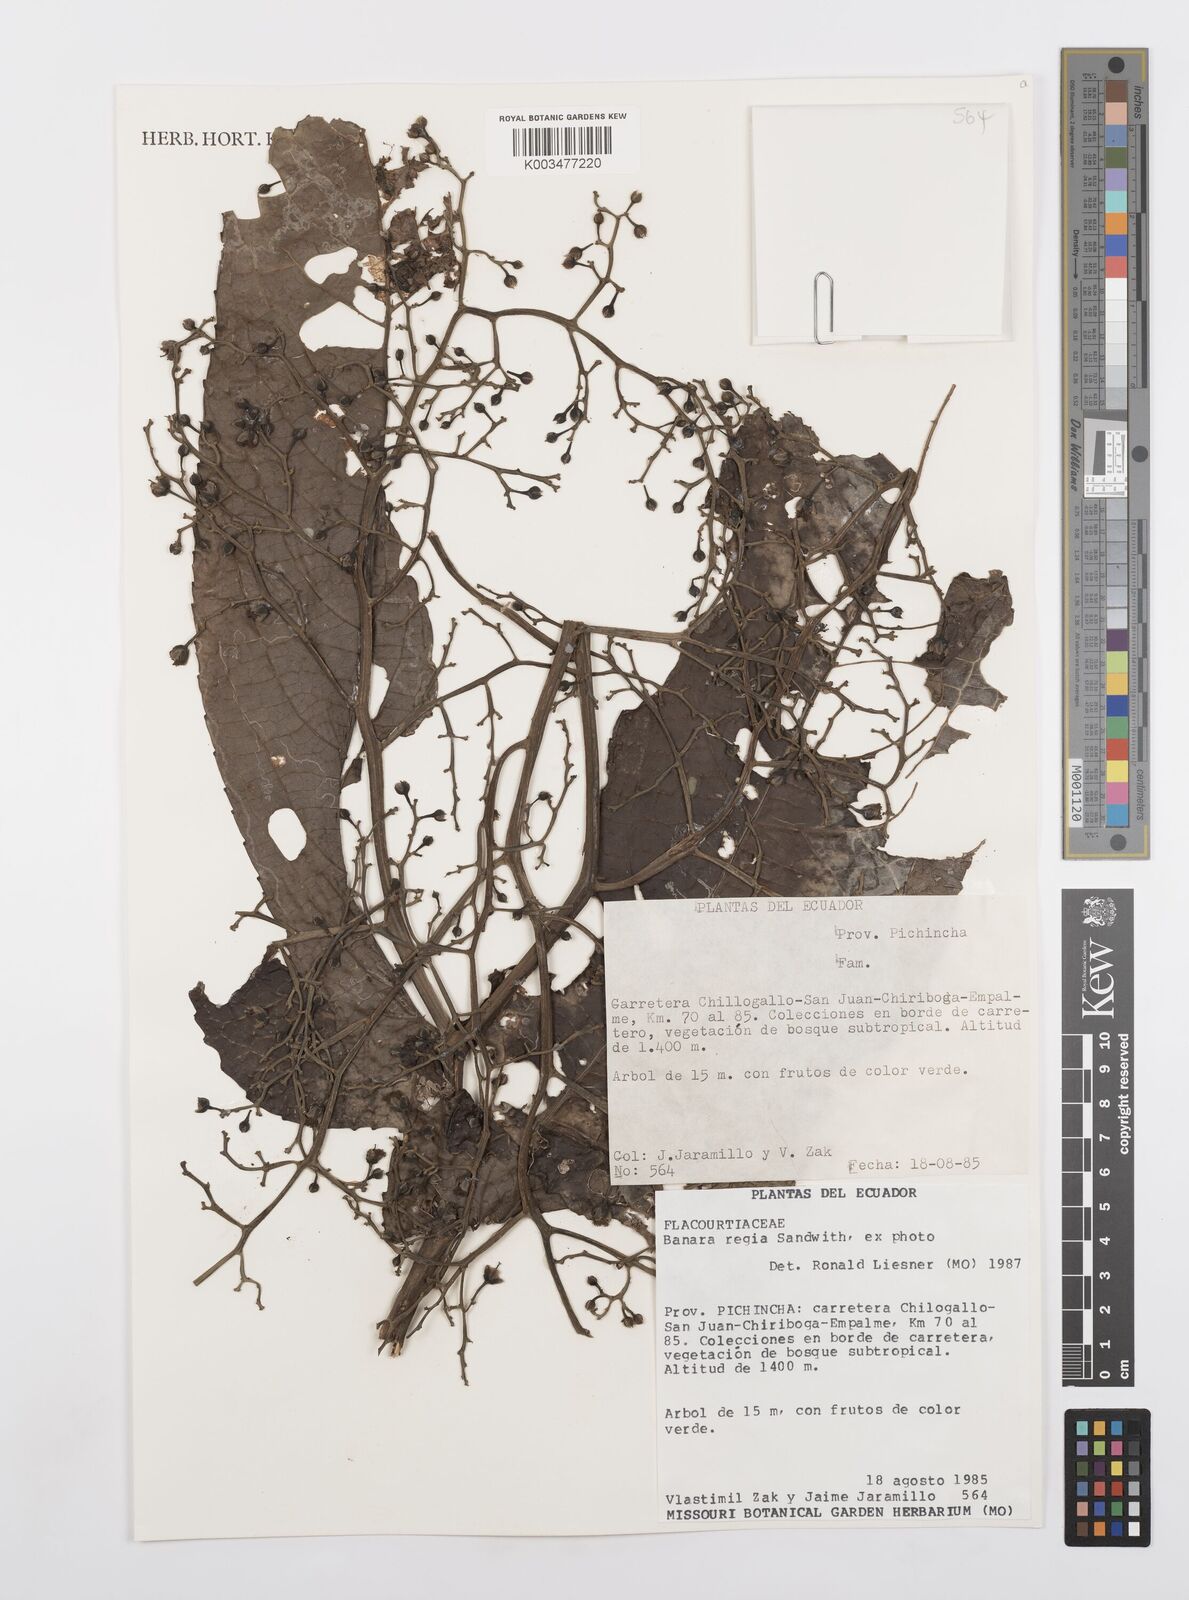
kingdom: Plantae
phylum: Tracheophyta
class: Magnoliopsida
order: Malpighiales
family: Salicaceae
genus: Banara
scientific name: Banara regia
